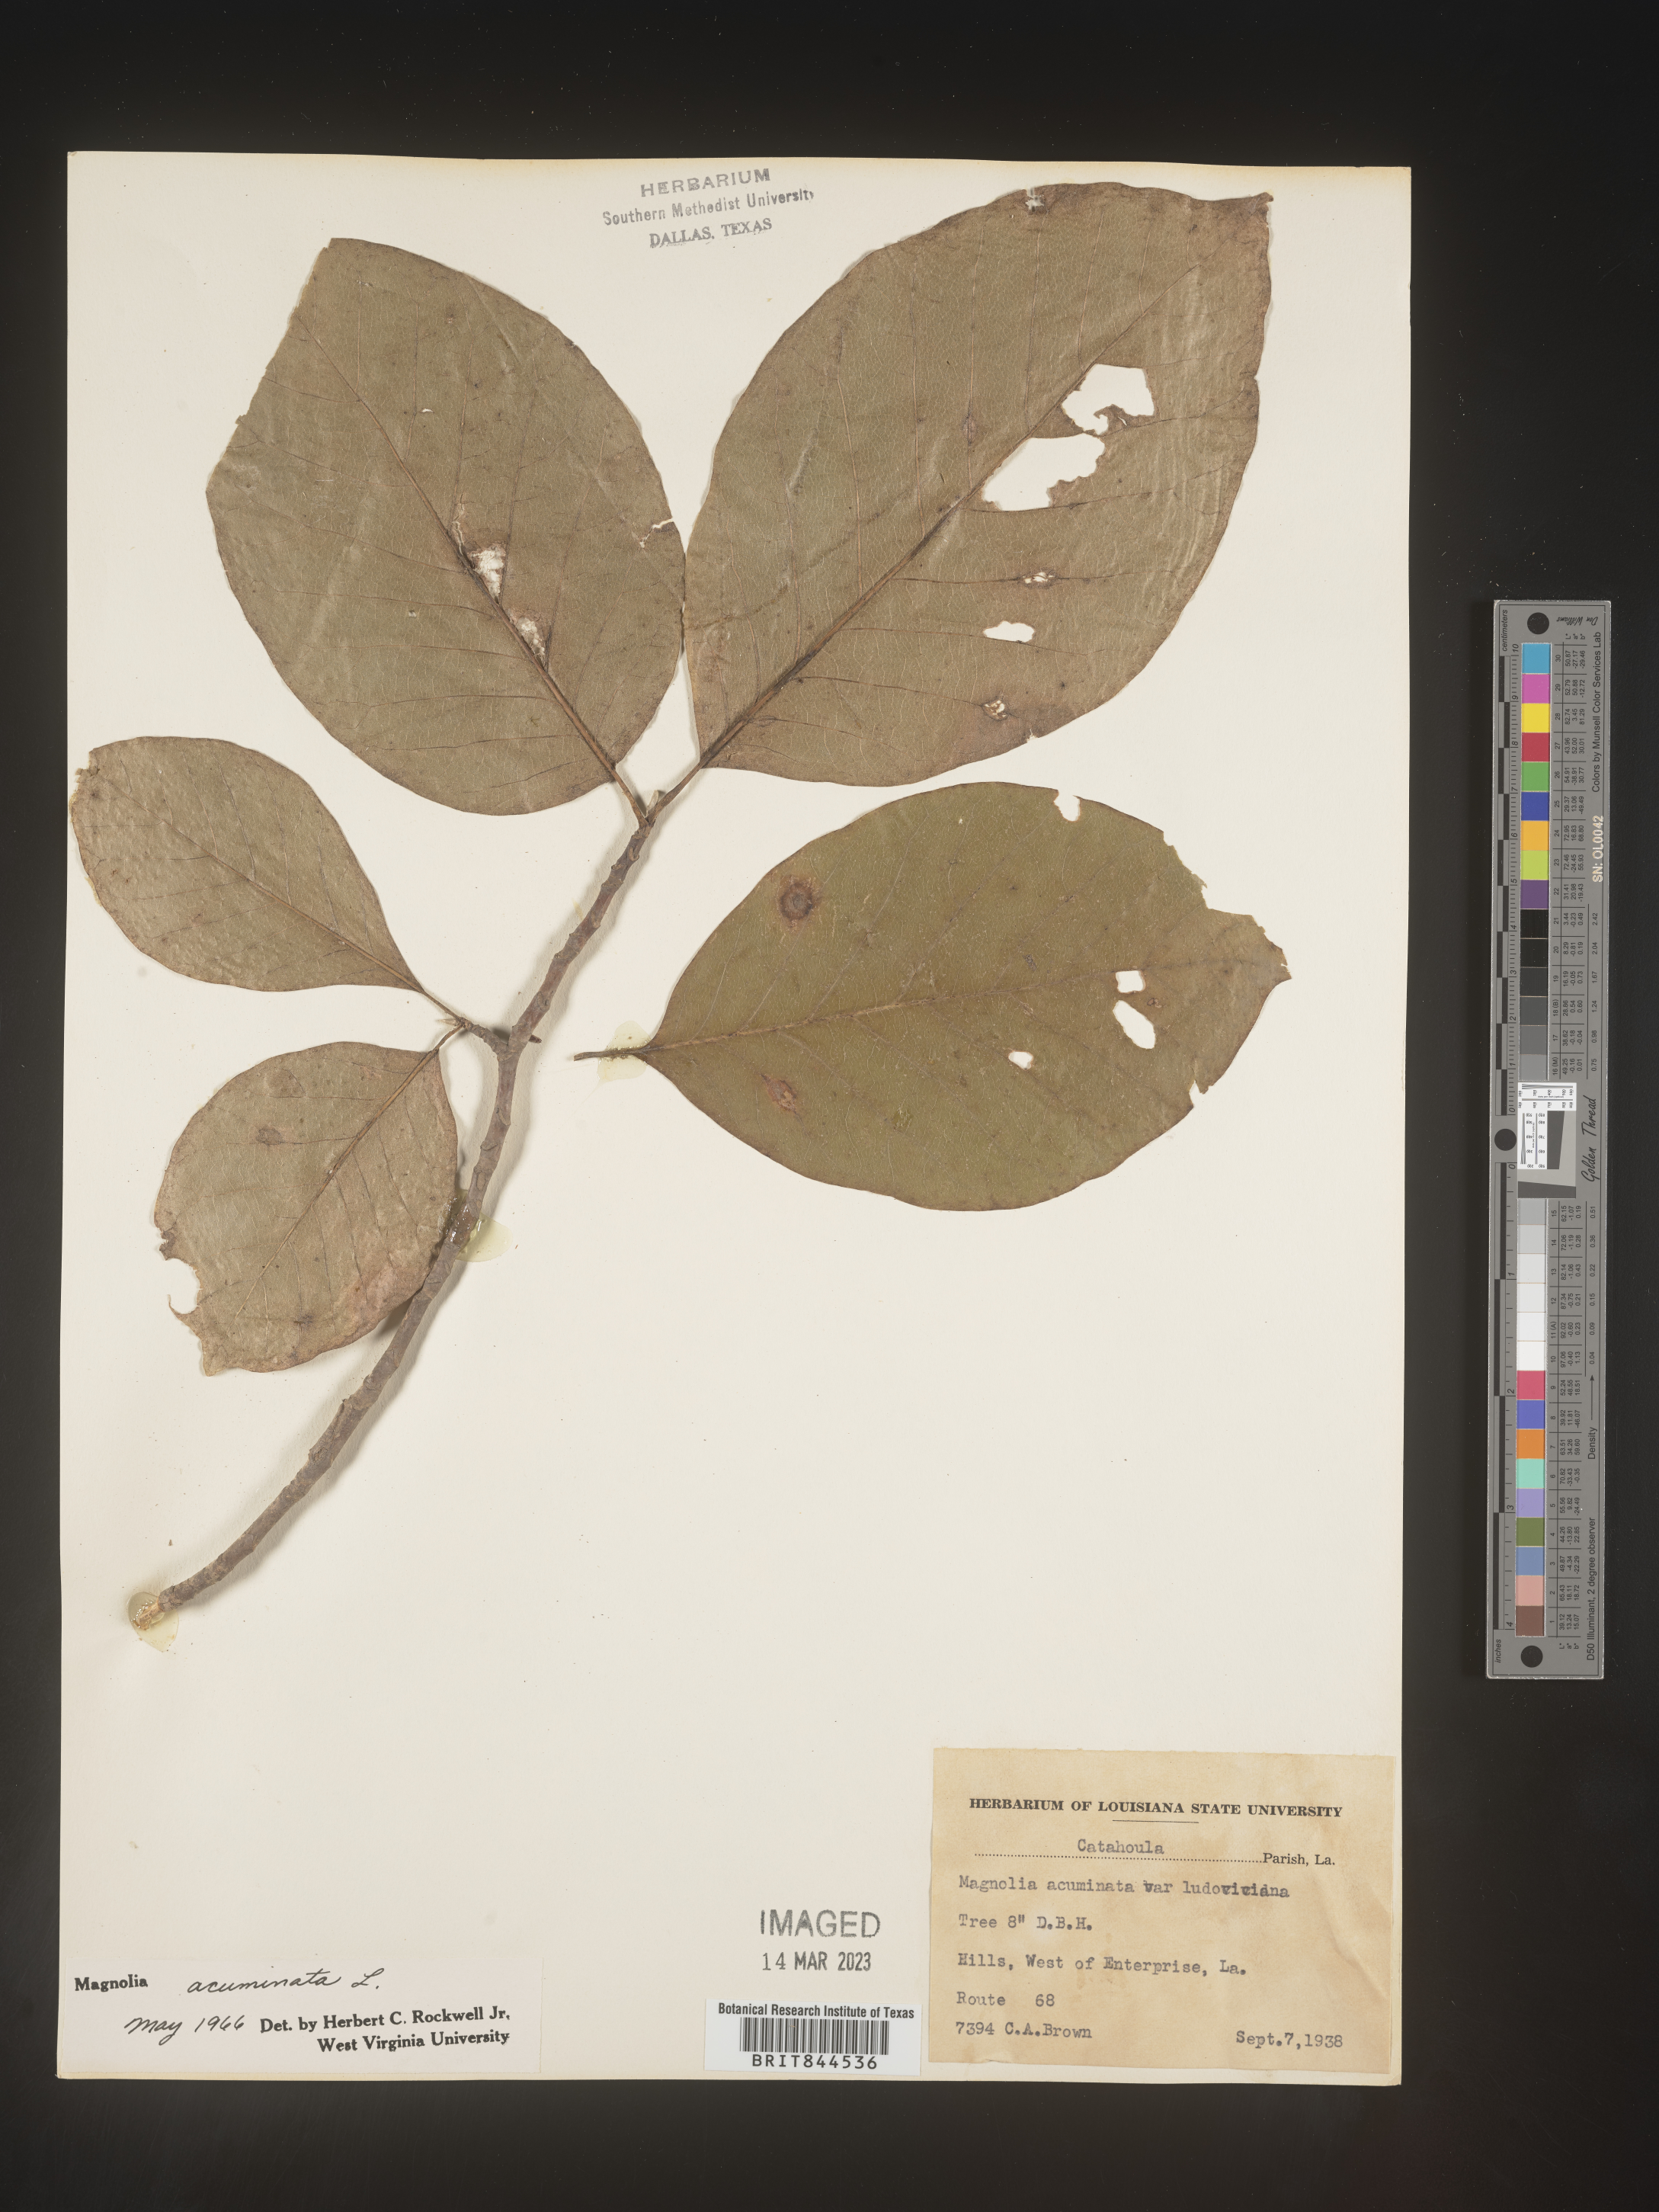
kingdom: Plantae
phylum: Tracheophyta
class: Magnoliopsida
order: Magnoliales
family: Magnoliaceae
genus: Magnolia
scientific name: Magnolia acuminata
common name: Cucumber magnolia
